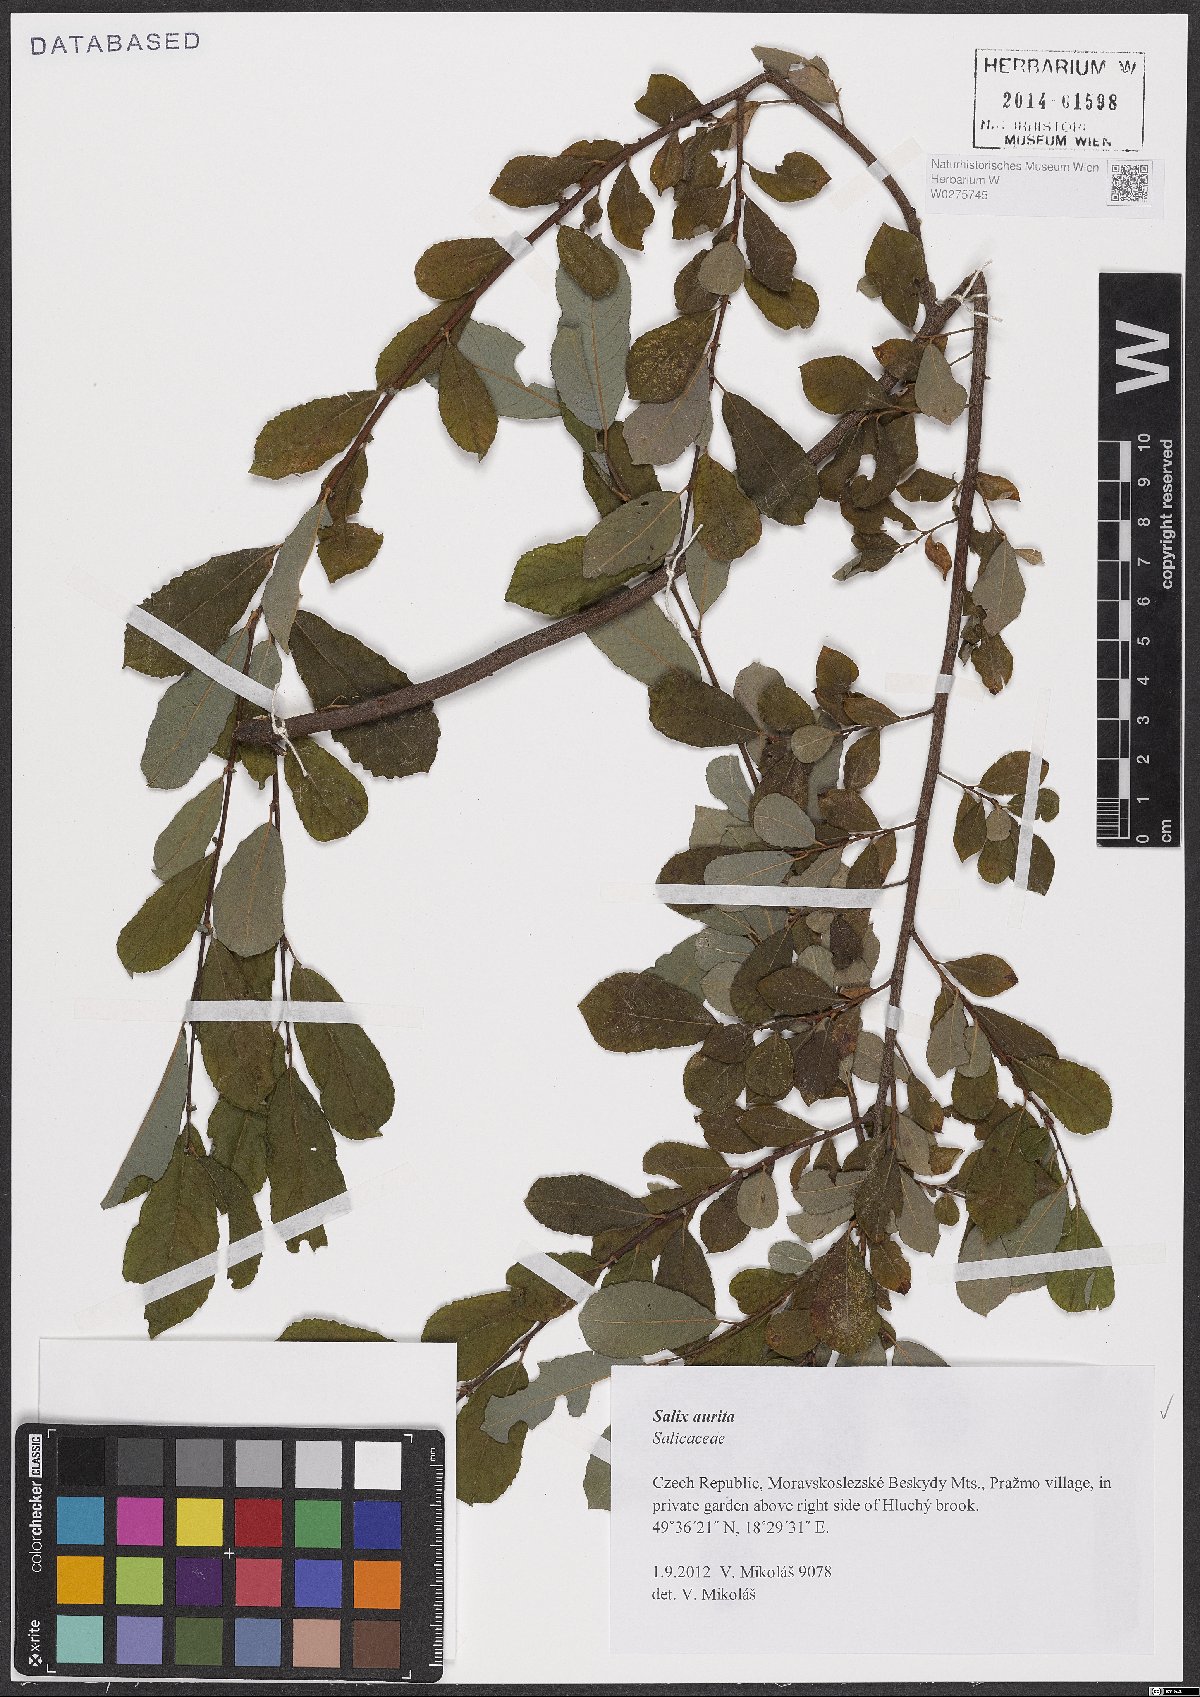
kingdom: Plantae
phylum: Tracheophyta
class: Magnoliopsida
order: Malpighiales
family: Salicaceae
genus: Salix
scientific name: Salix aurita
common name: Eared willow
